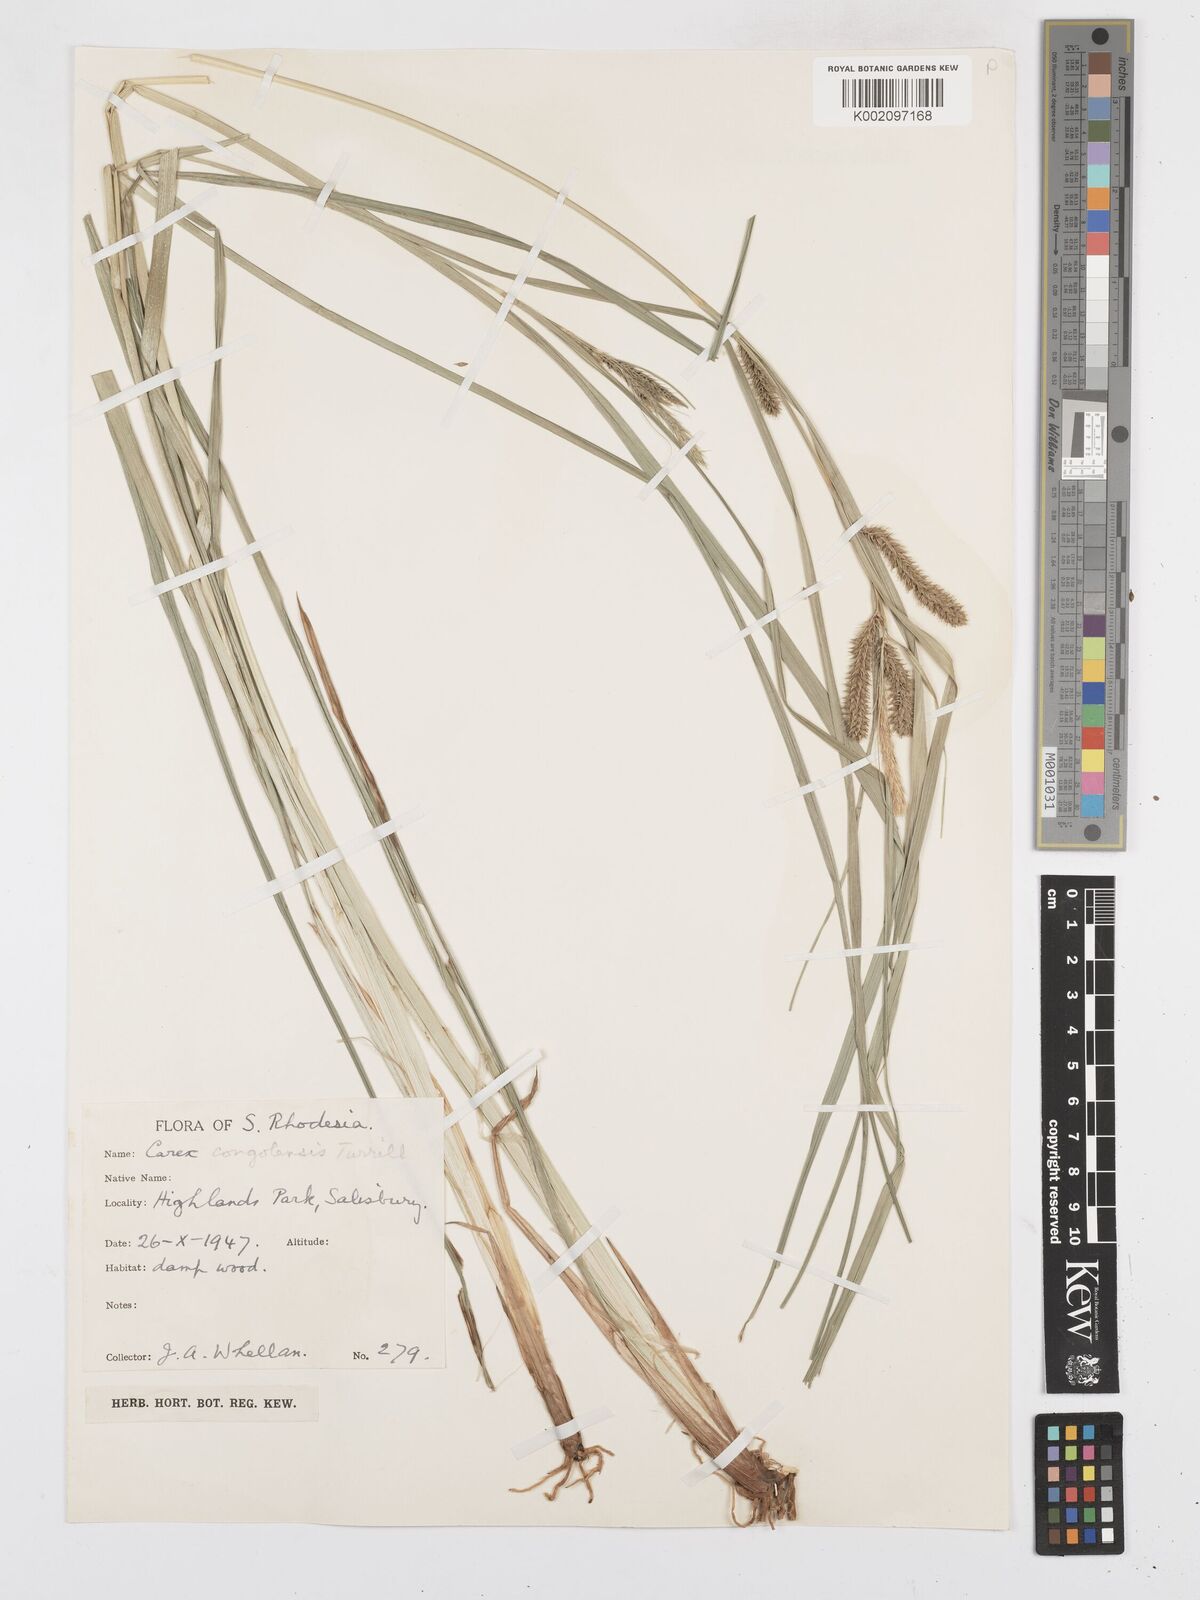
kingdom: Plantae
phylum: Tracheophyta
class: Liliopsida
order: Poales
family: Cyperaceae
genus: Carex
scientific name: Carex congolensis
